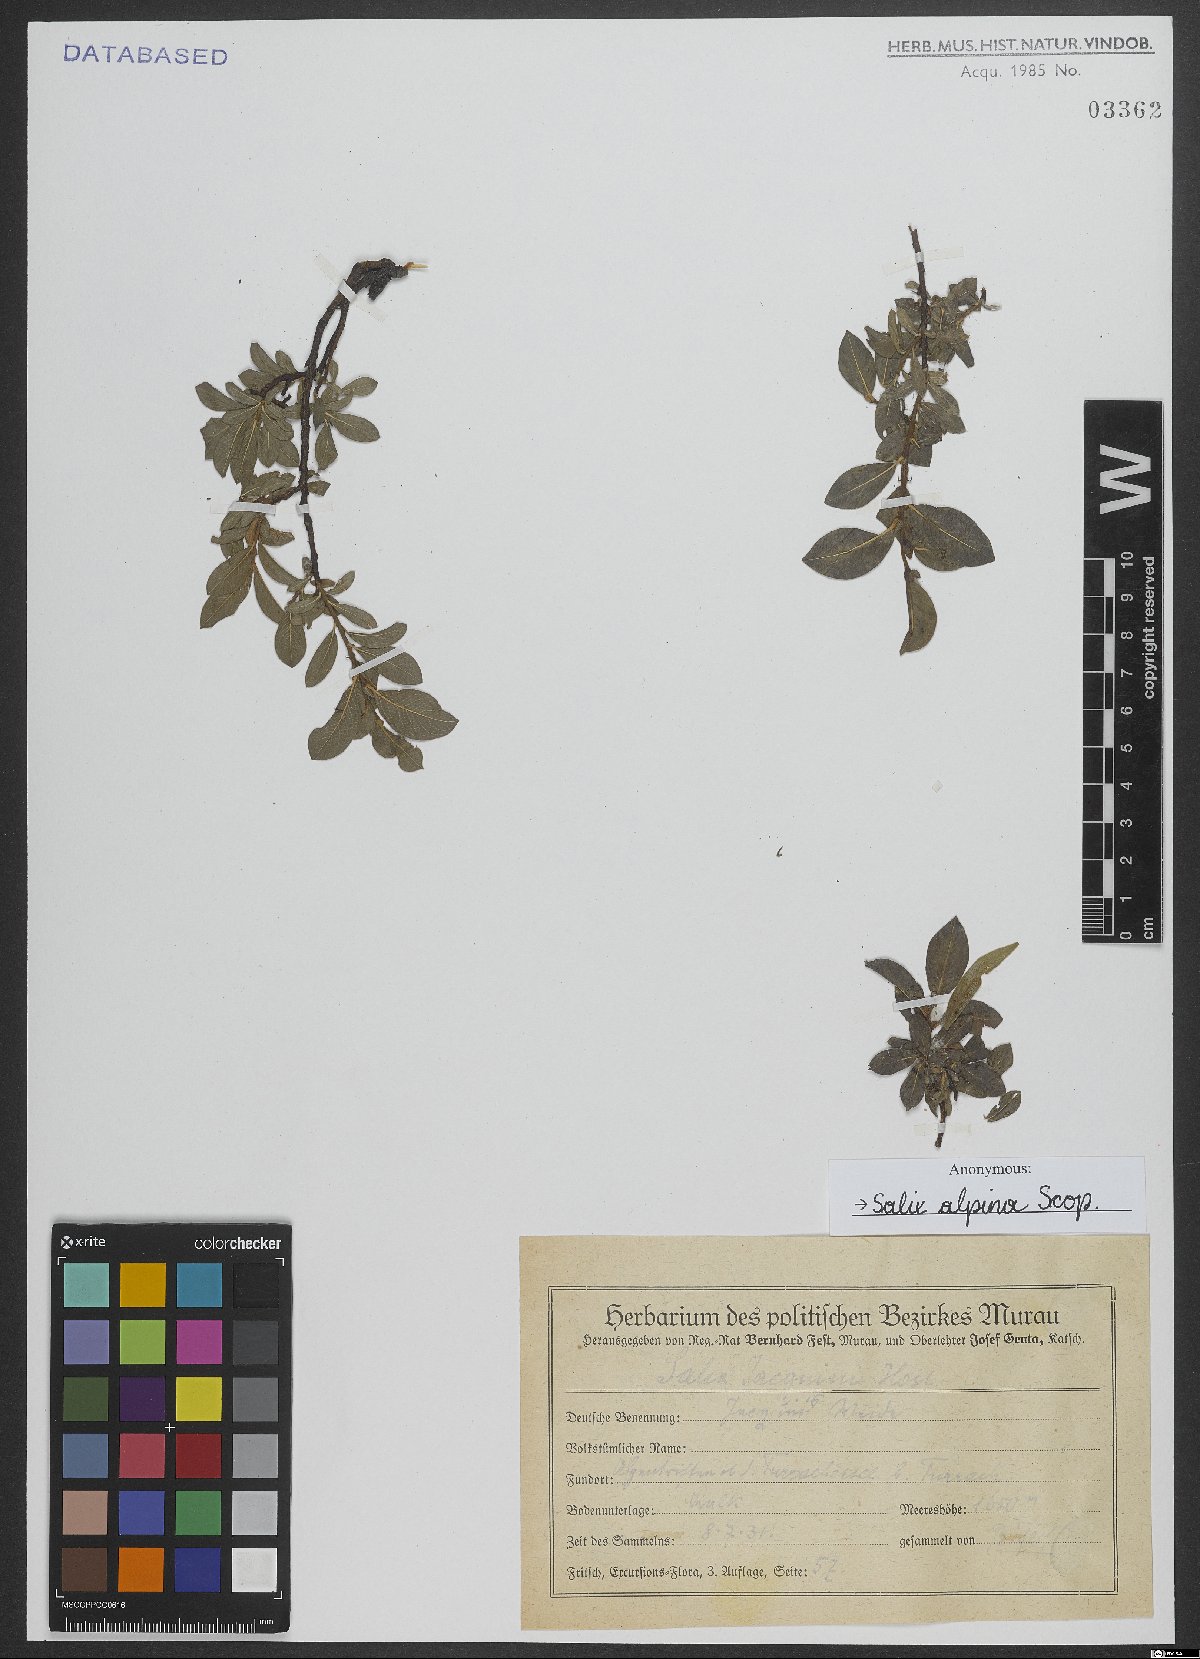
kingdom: Plantae
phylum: Tracheophyta
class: Magnoliopsida
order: Malpighiales
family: Salicaceae
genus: Salix
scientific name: Salix alpina
